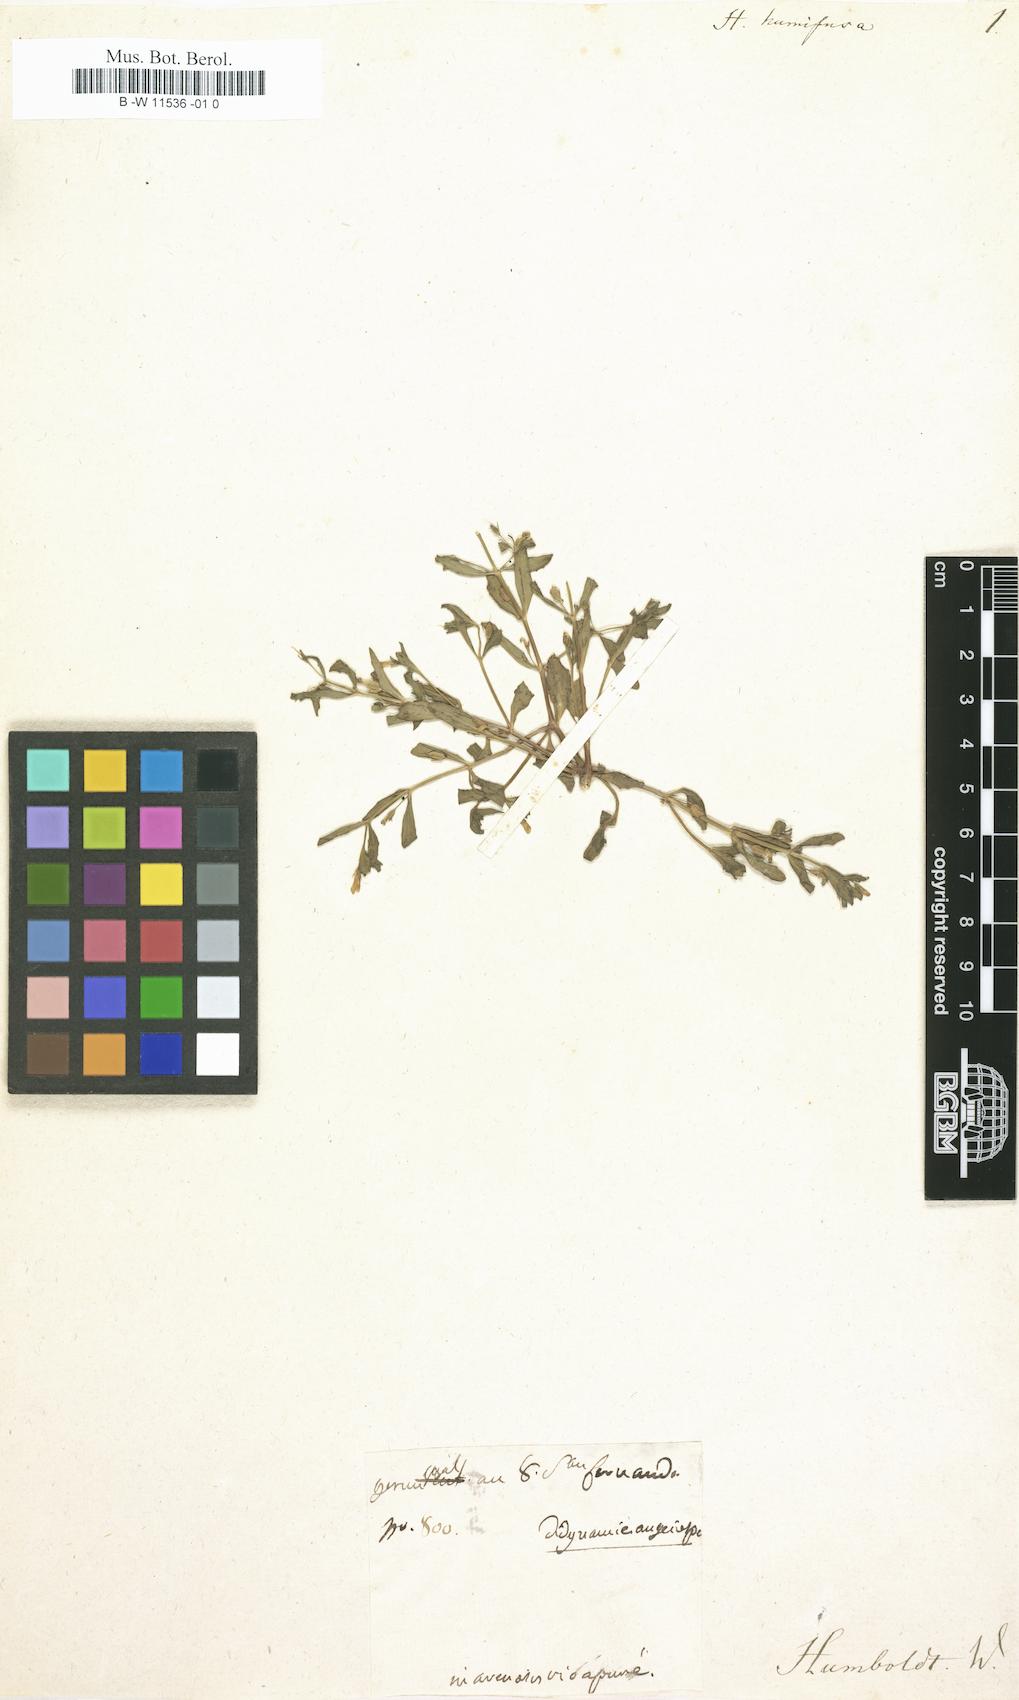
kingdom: Plantae
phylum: Tracheophyta
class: Magnoliopsida
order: Lamiales
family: Plantaginaceae
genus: Bacopa
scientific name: Bacopa humifusa
